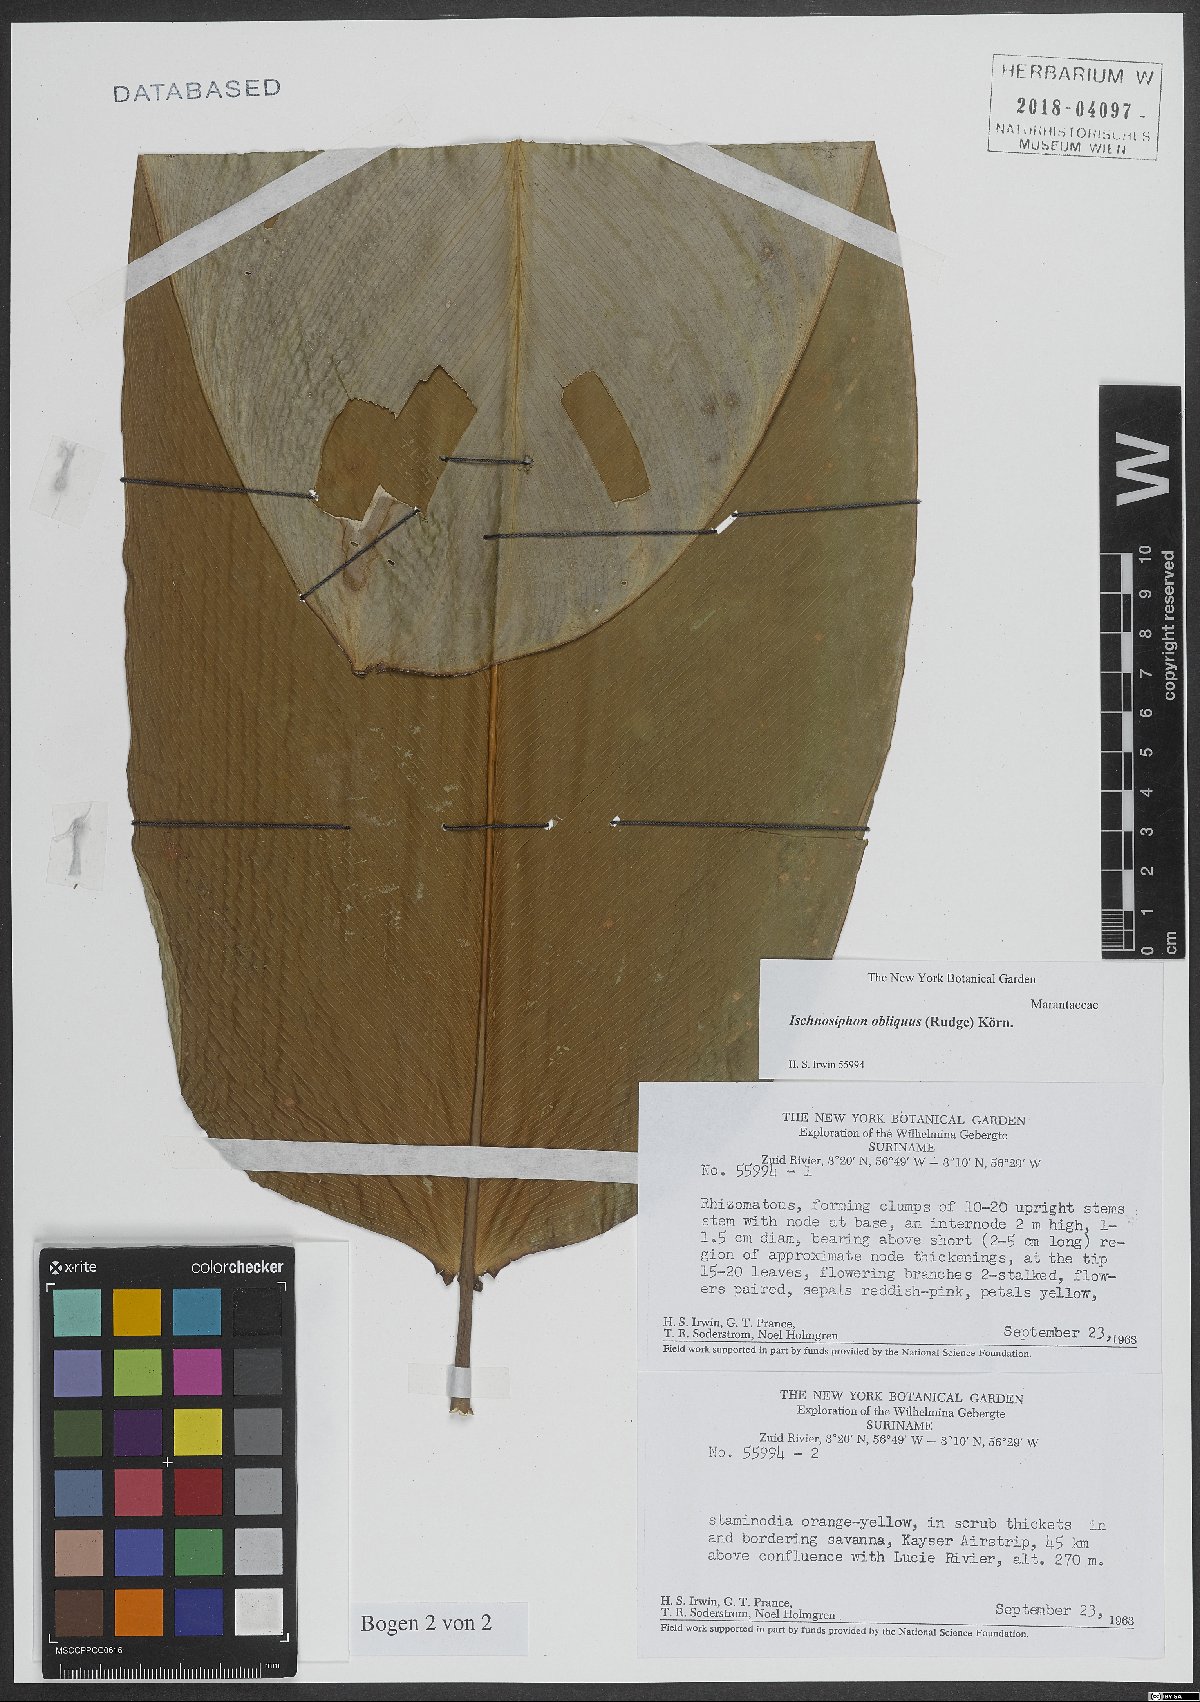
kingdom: Plantae
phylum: Tracheophyta
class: Liliopsida
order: Zingiberales
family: Marantaceae
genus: Ischnosiphon
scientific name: Ischnosiphon obliquus
